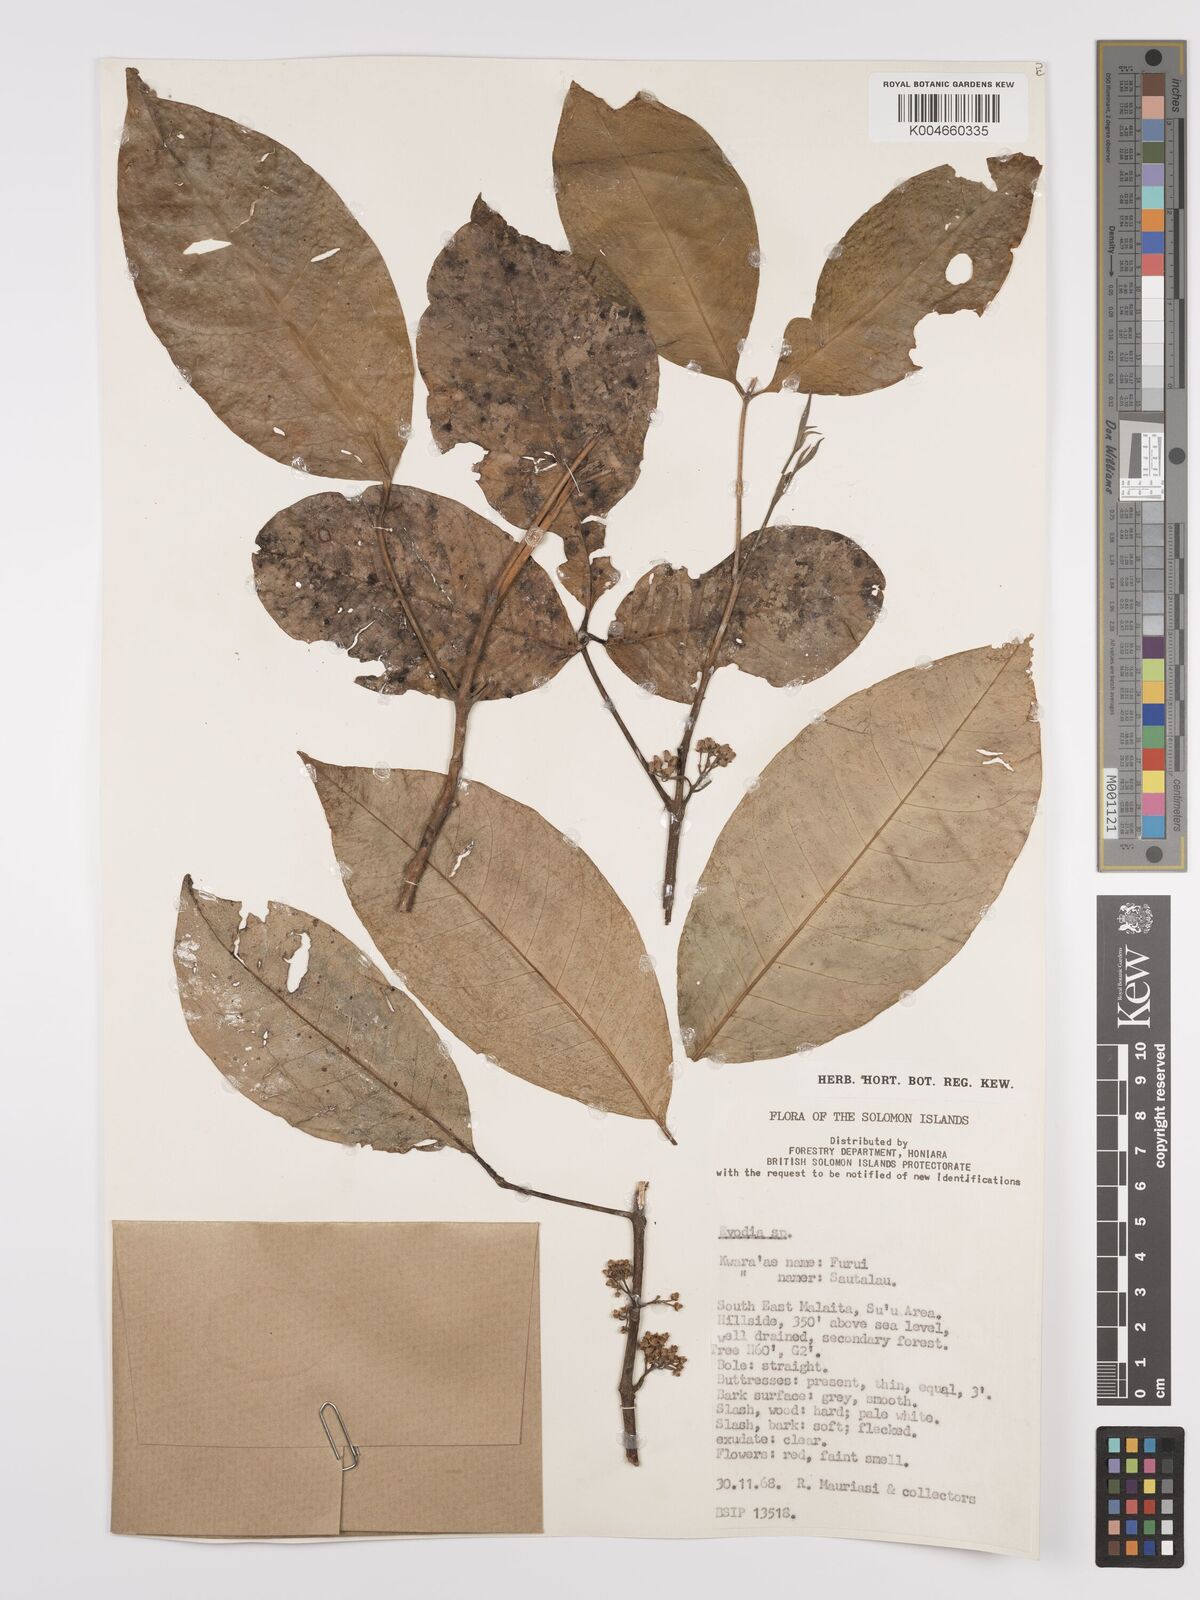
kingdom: Plantae
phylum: Tracheophyta
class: Magnoliopsida
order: Sapindales
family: Rutaceae
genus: Euodia
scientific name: Euodia
